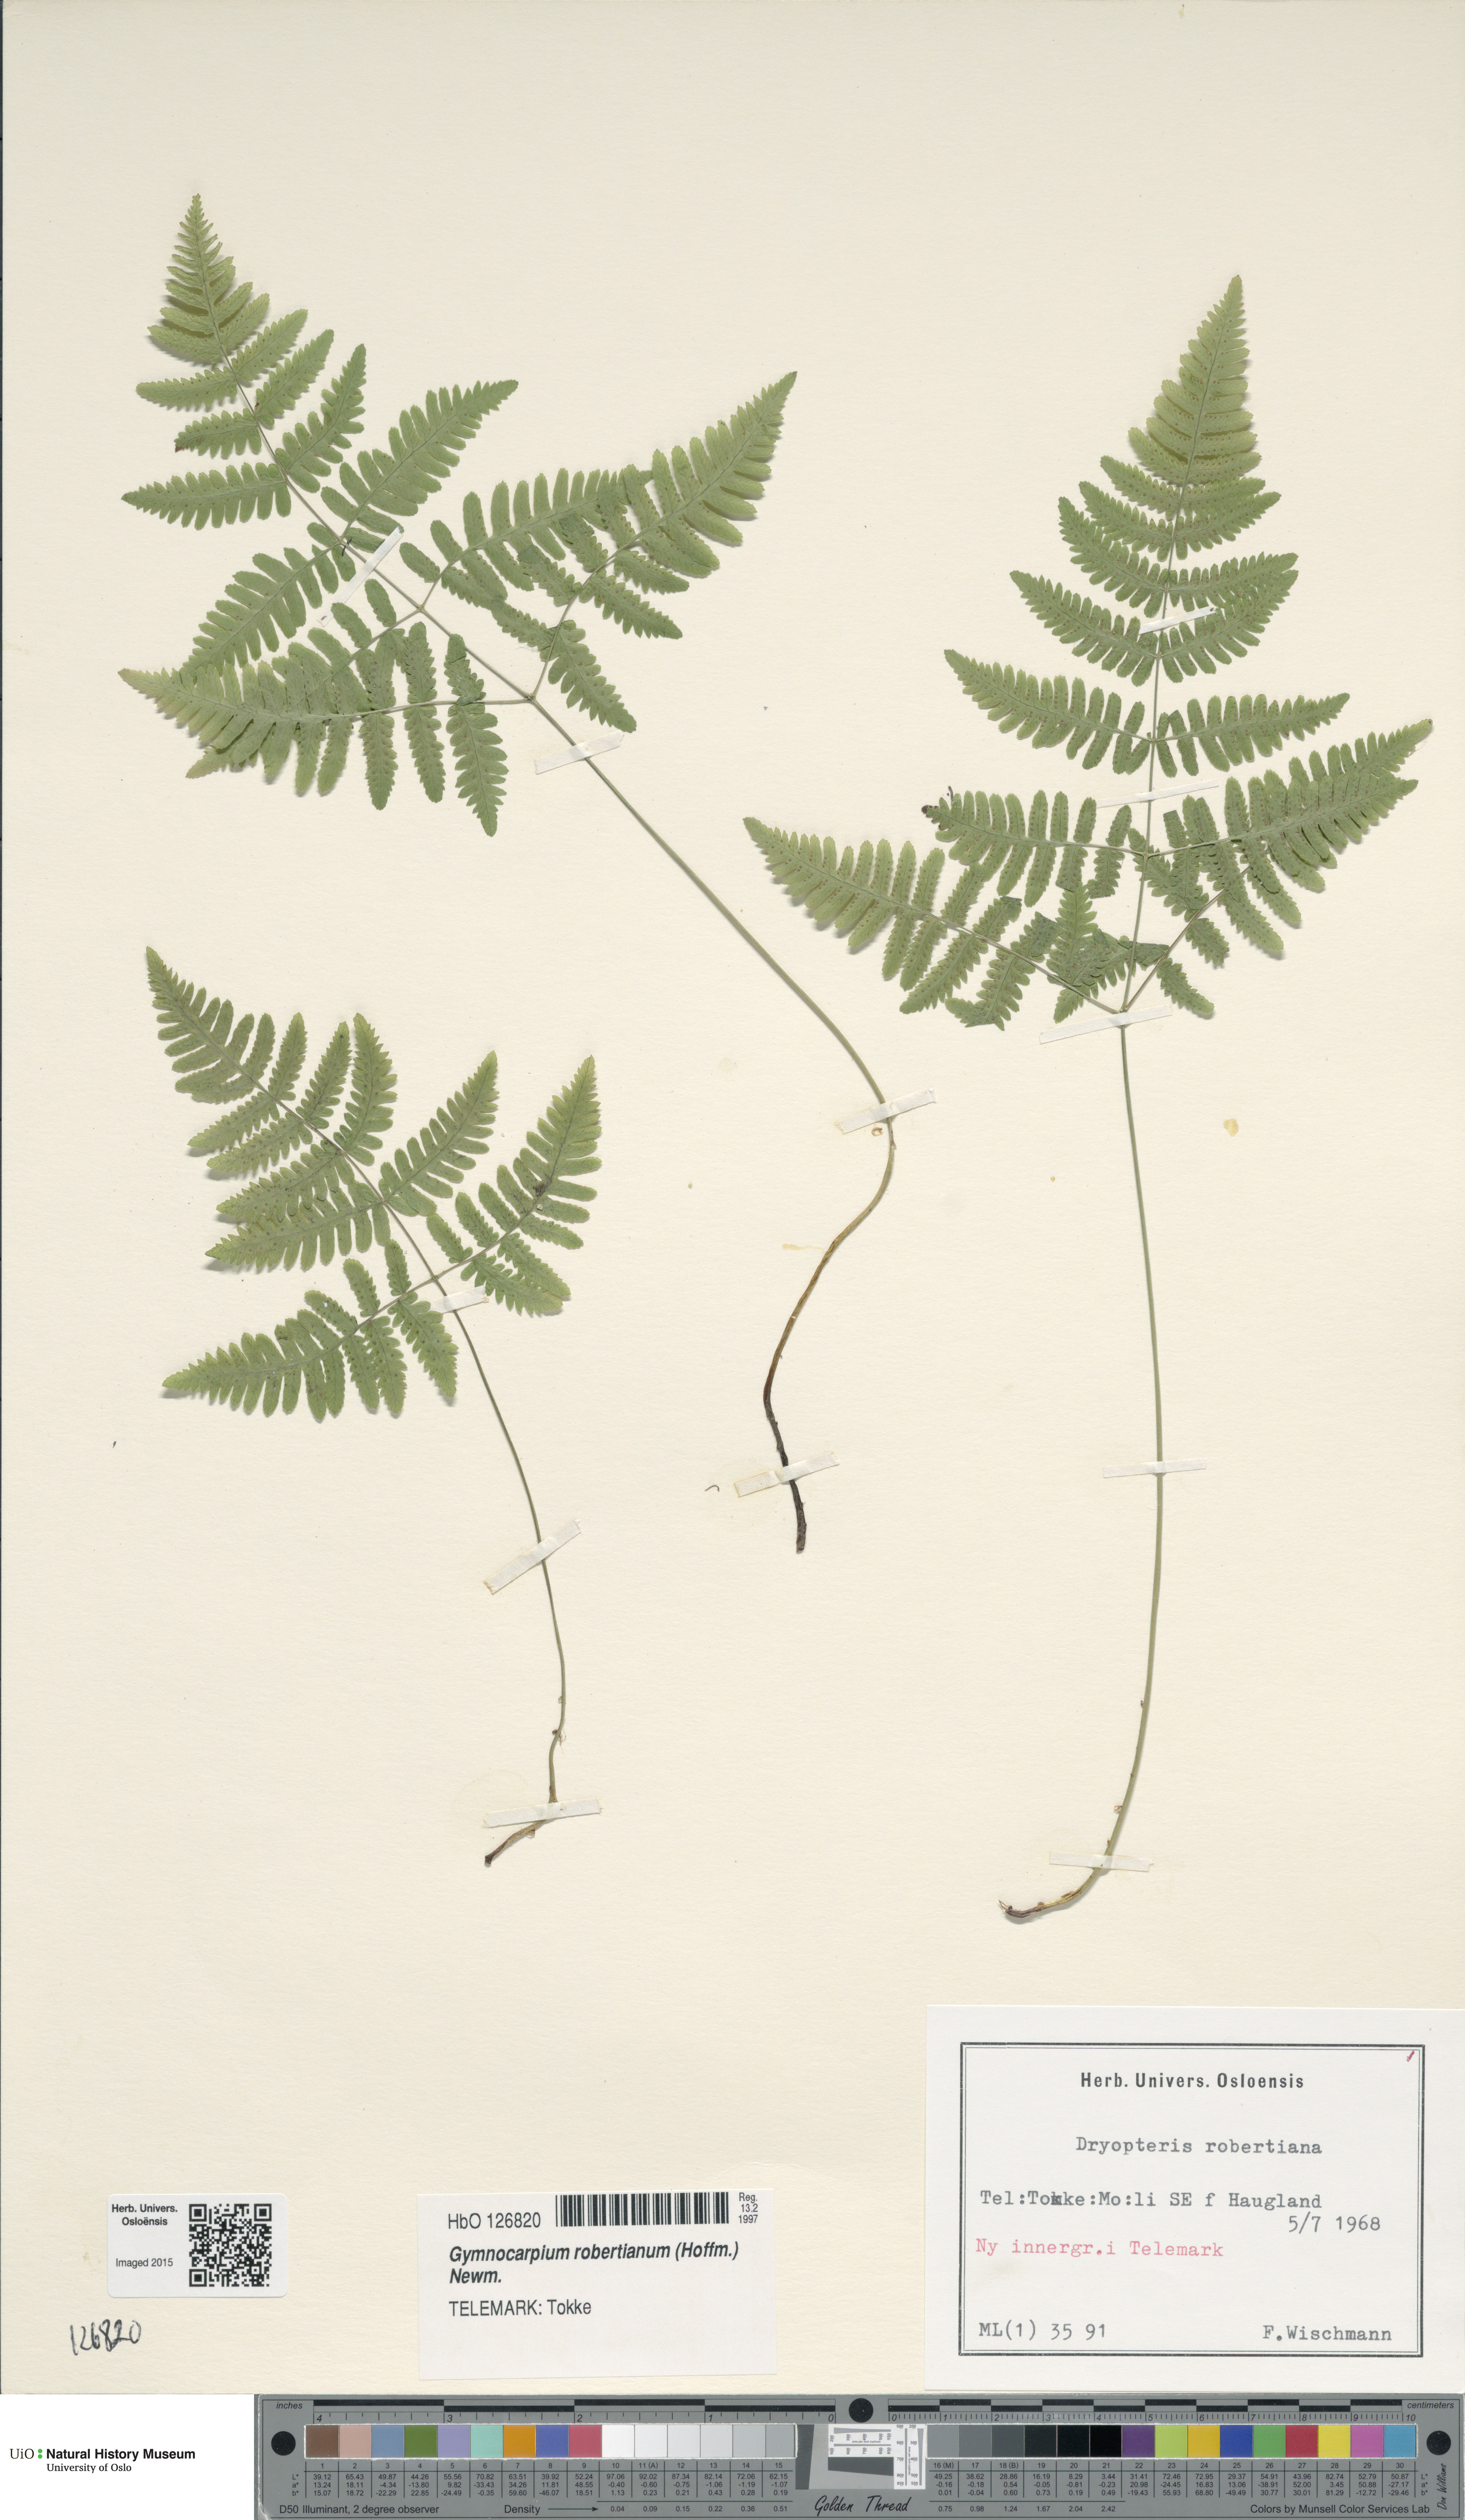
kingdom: Plantae
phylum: Tracheophyta
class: Polypodiopsida
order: Polypodiales
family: Cystopteridaceae
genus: Gymnocarpium
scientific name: Gymnocarpium robertianum
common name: Limestone fern
